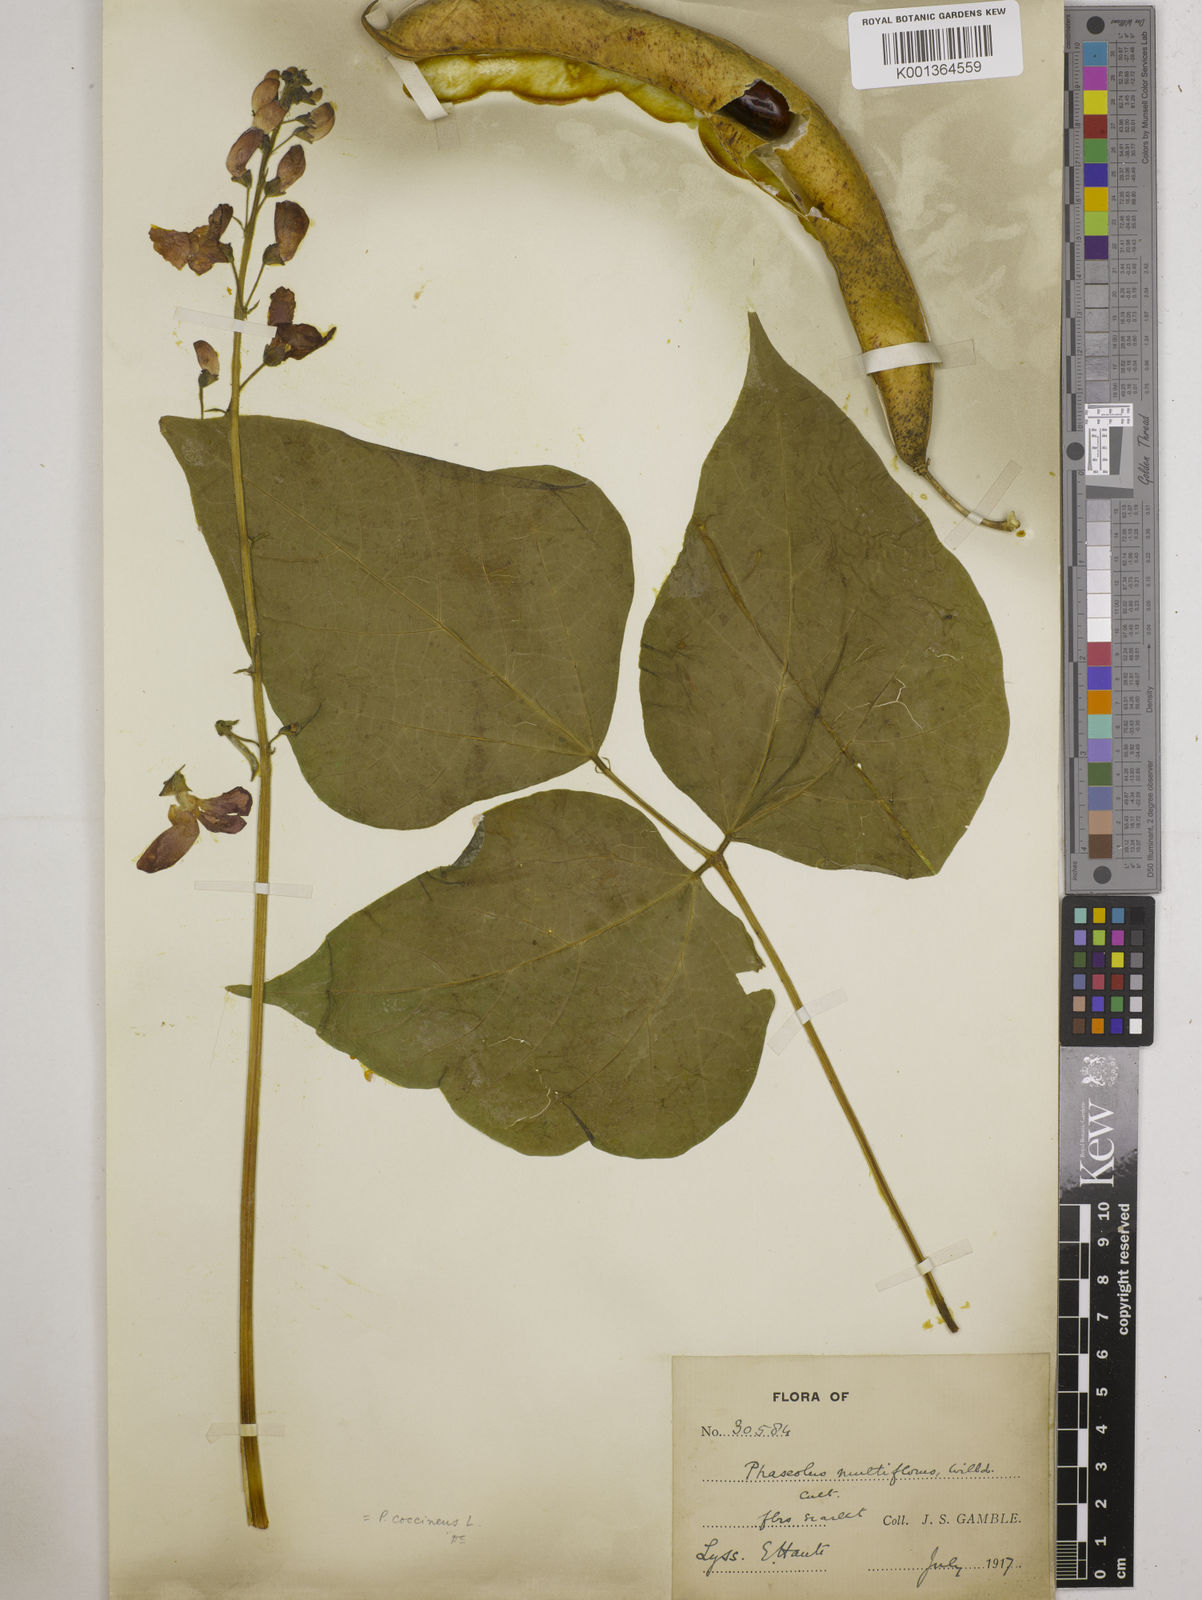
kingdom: Plantae
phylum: Tracheophyta
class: Magnoliopsida
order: Fabales
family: Fabaceae
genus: Phaseolus
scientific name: Phaseolus coccineus
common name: Runner bean
